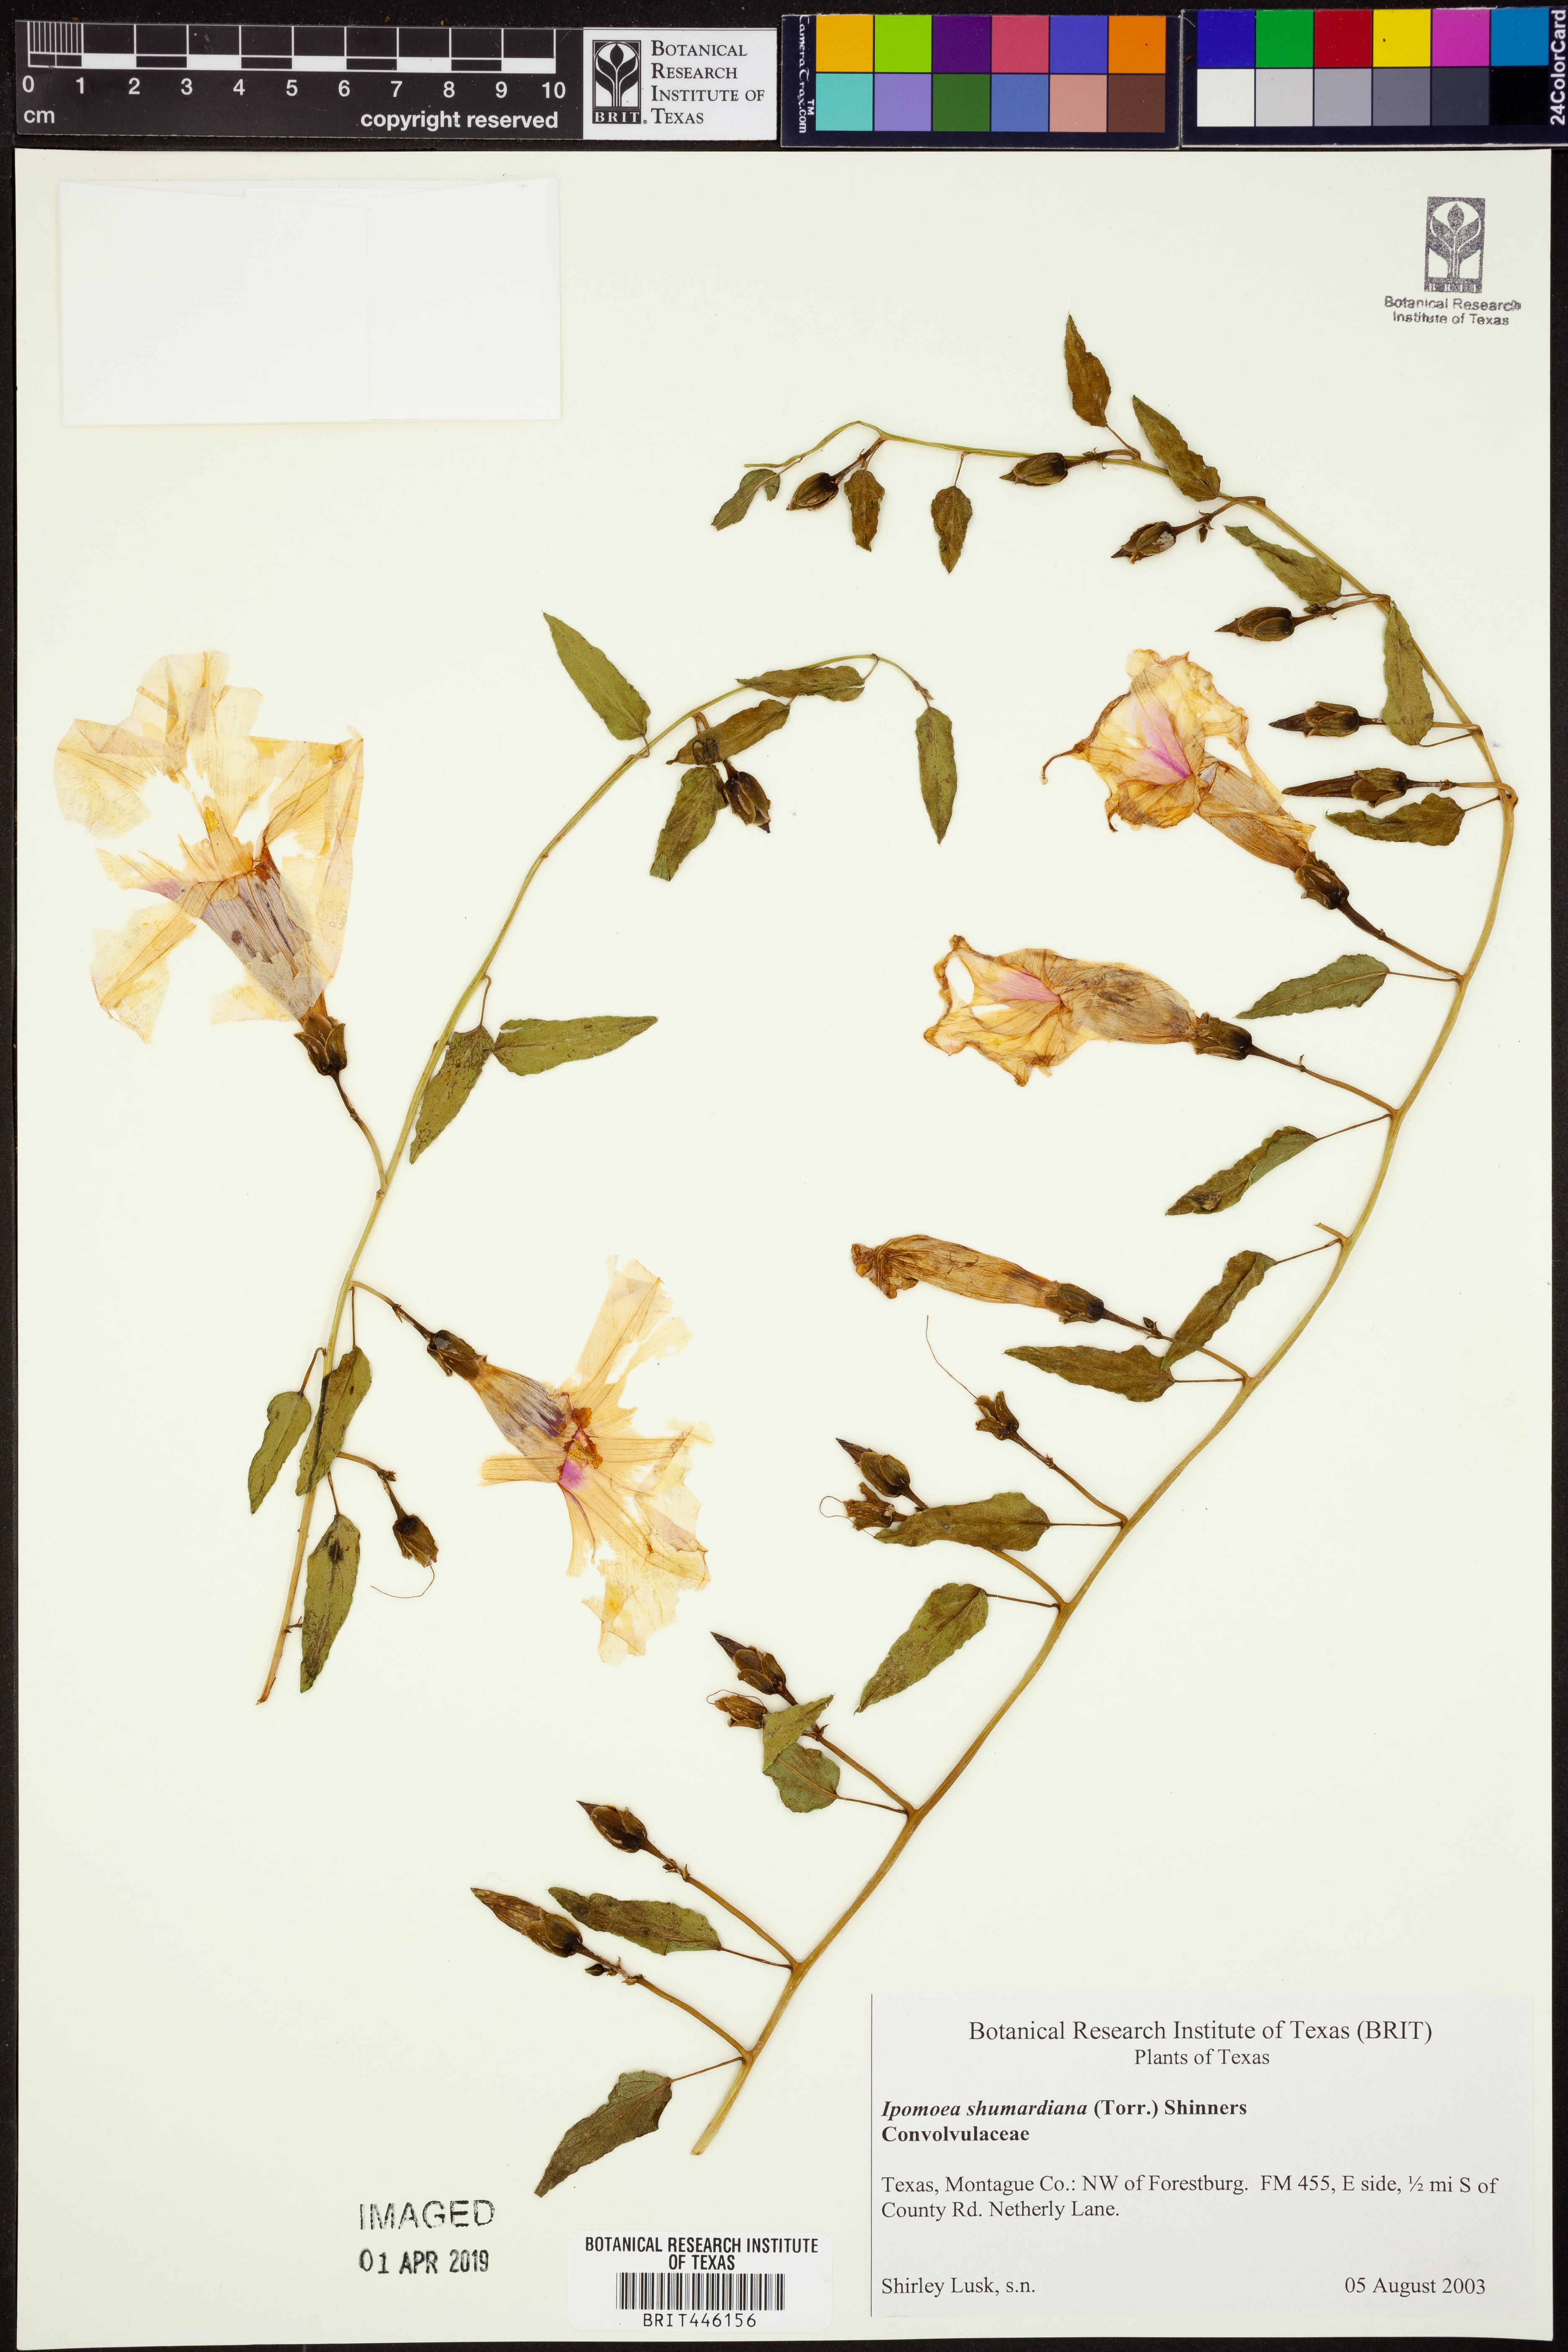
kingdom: Plantae
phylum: Tracheophyta
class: Magnoliopsida
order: Solanales
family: Convolvulaceae
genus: Ipomoea
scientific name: Ipomoea shumardiana
